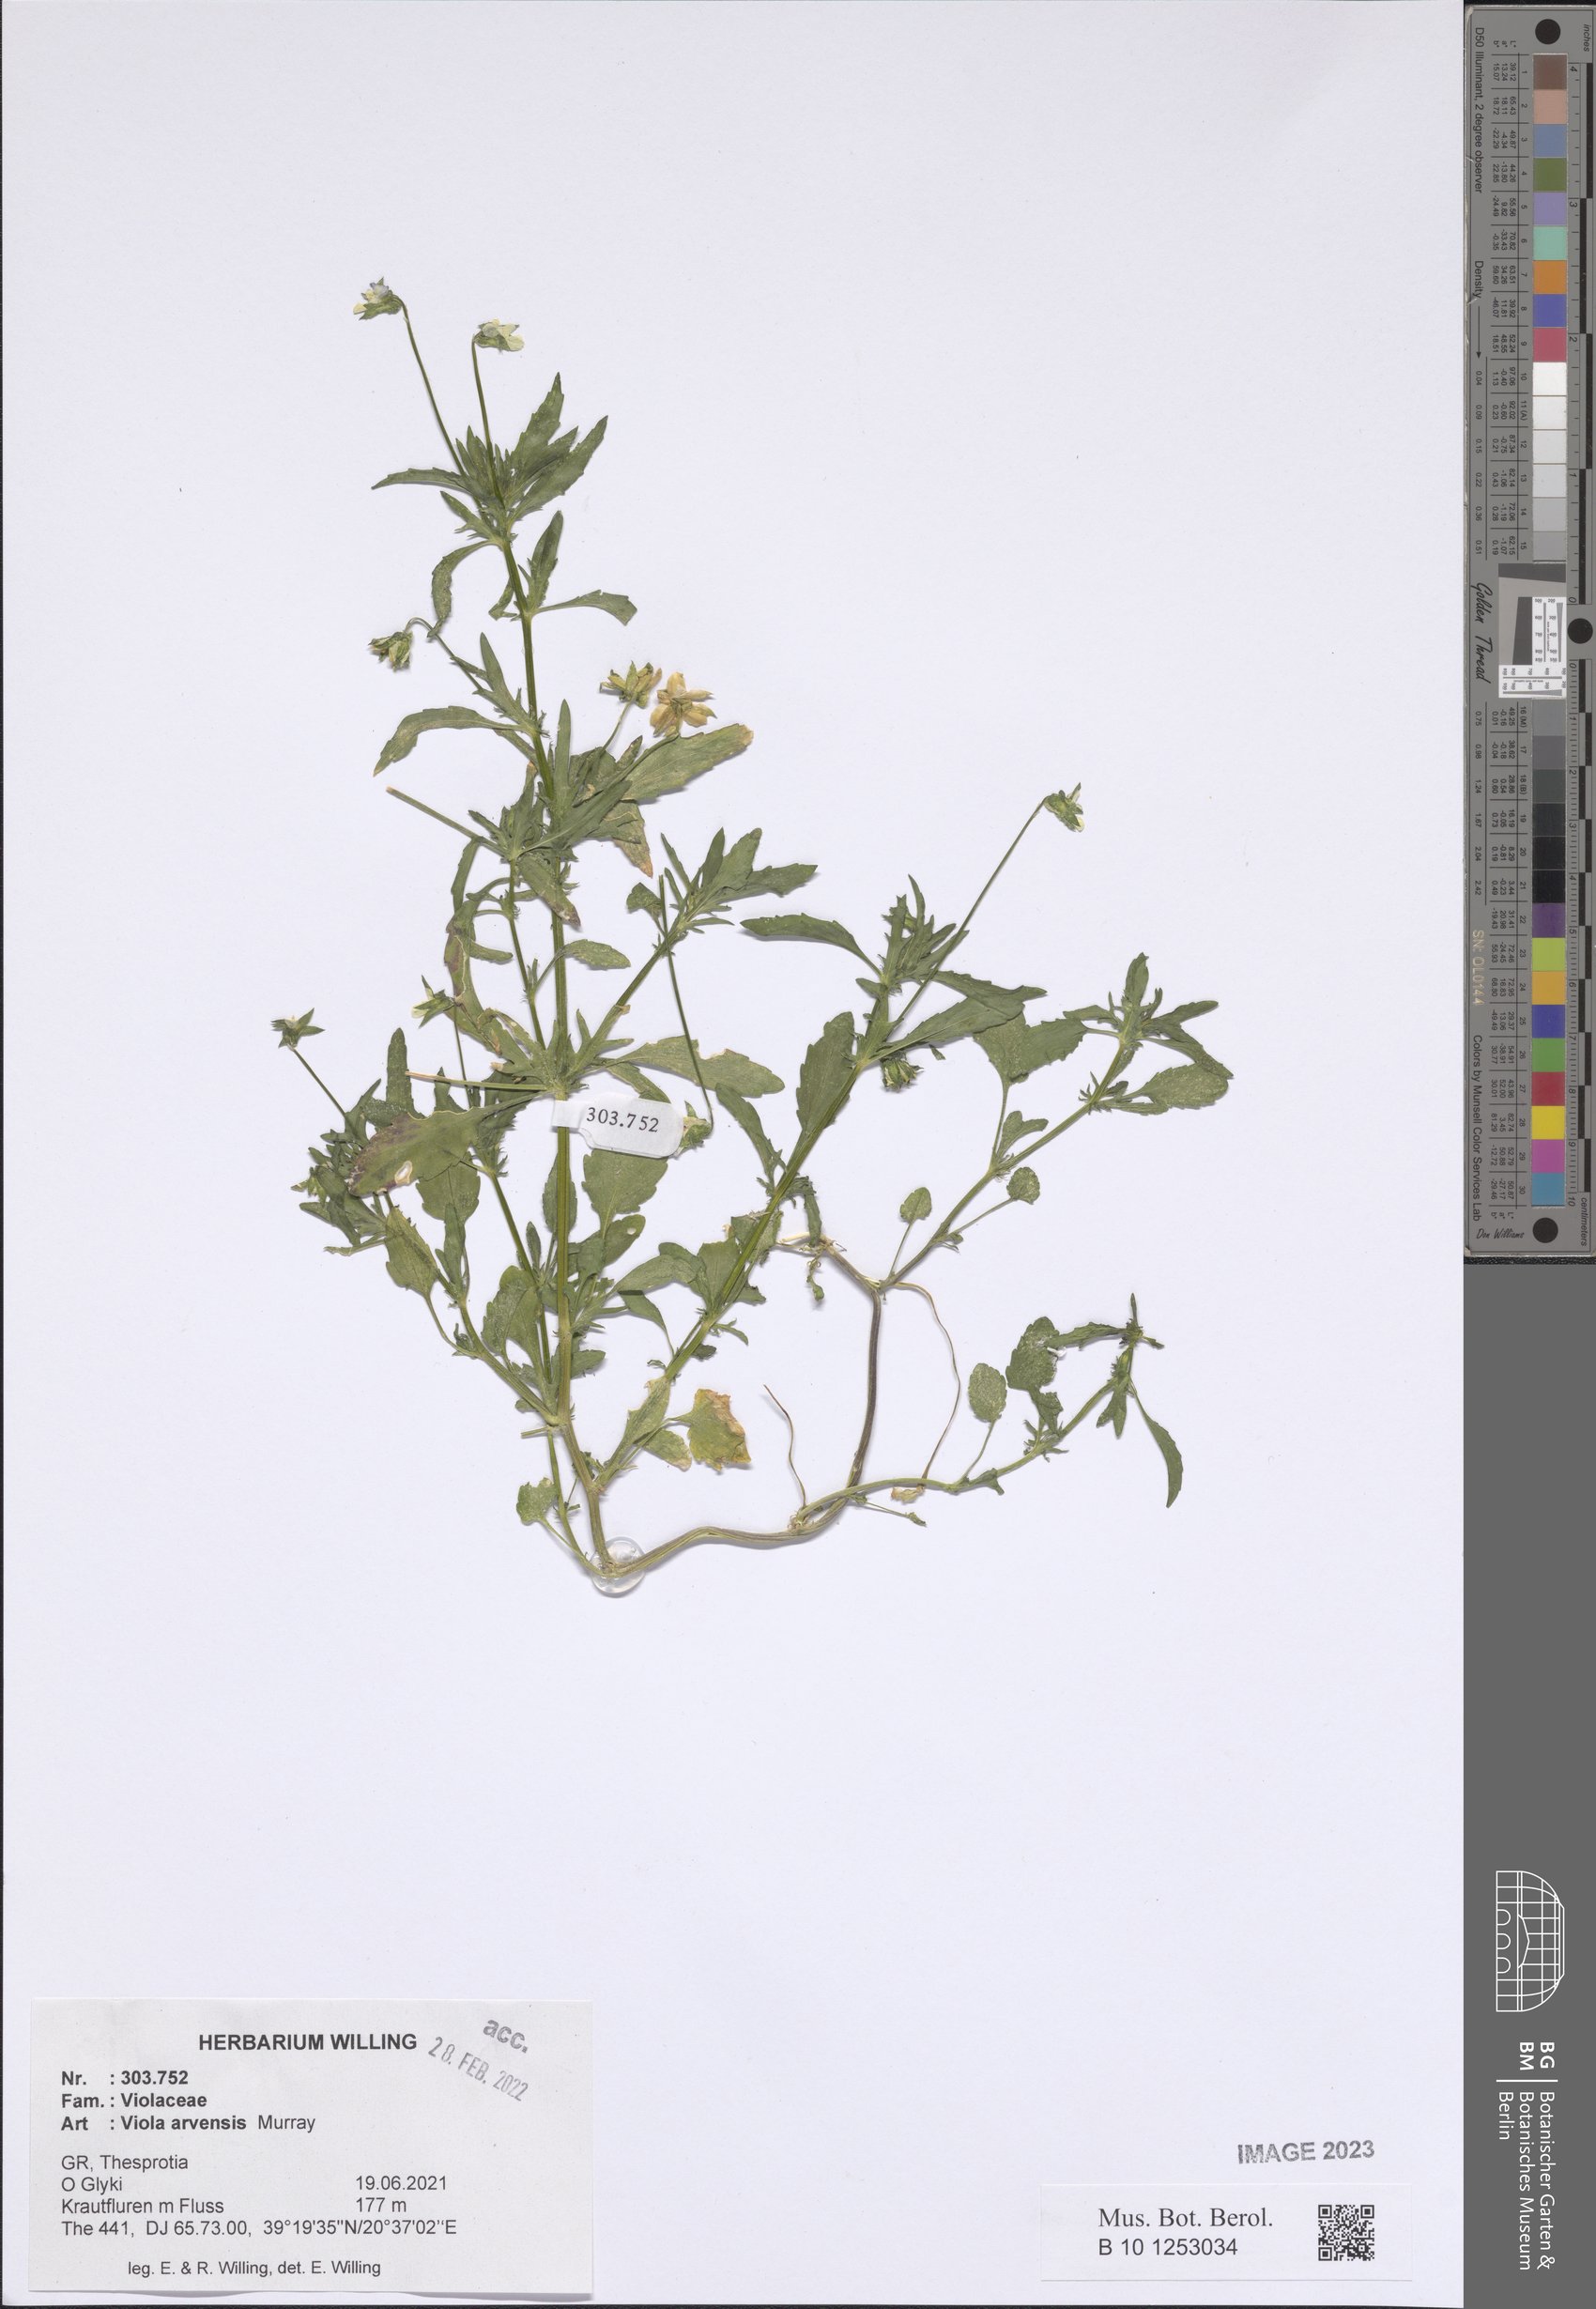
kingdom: Plantae
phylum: Tracheophyta
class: Magnoliopsida
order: Malpighiales
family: Violaceae
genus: Viola
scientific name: Viola arvensis
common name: Field pansy
